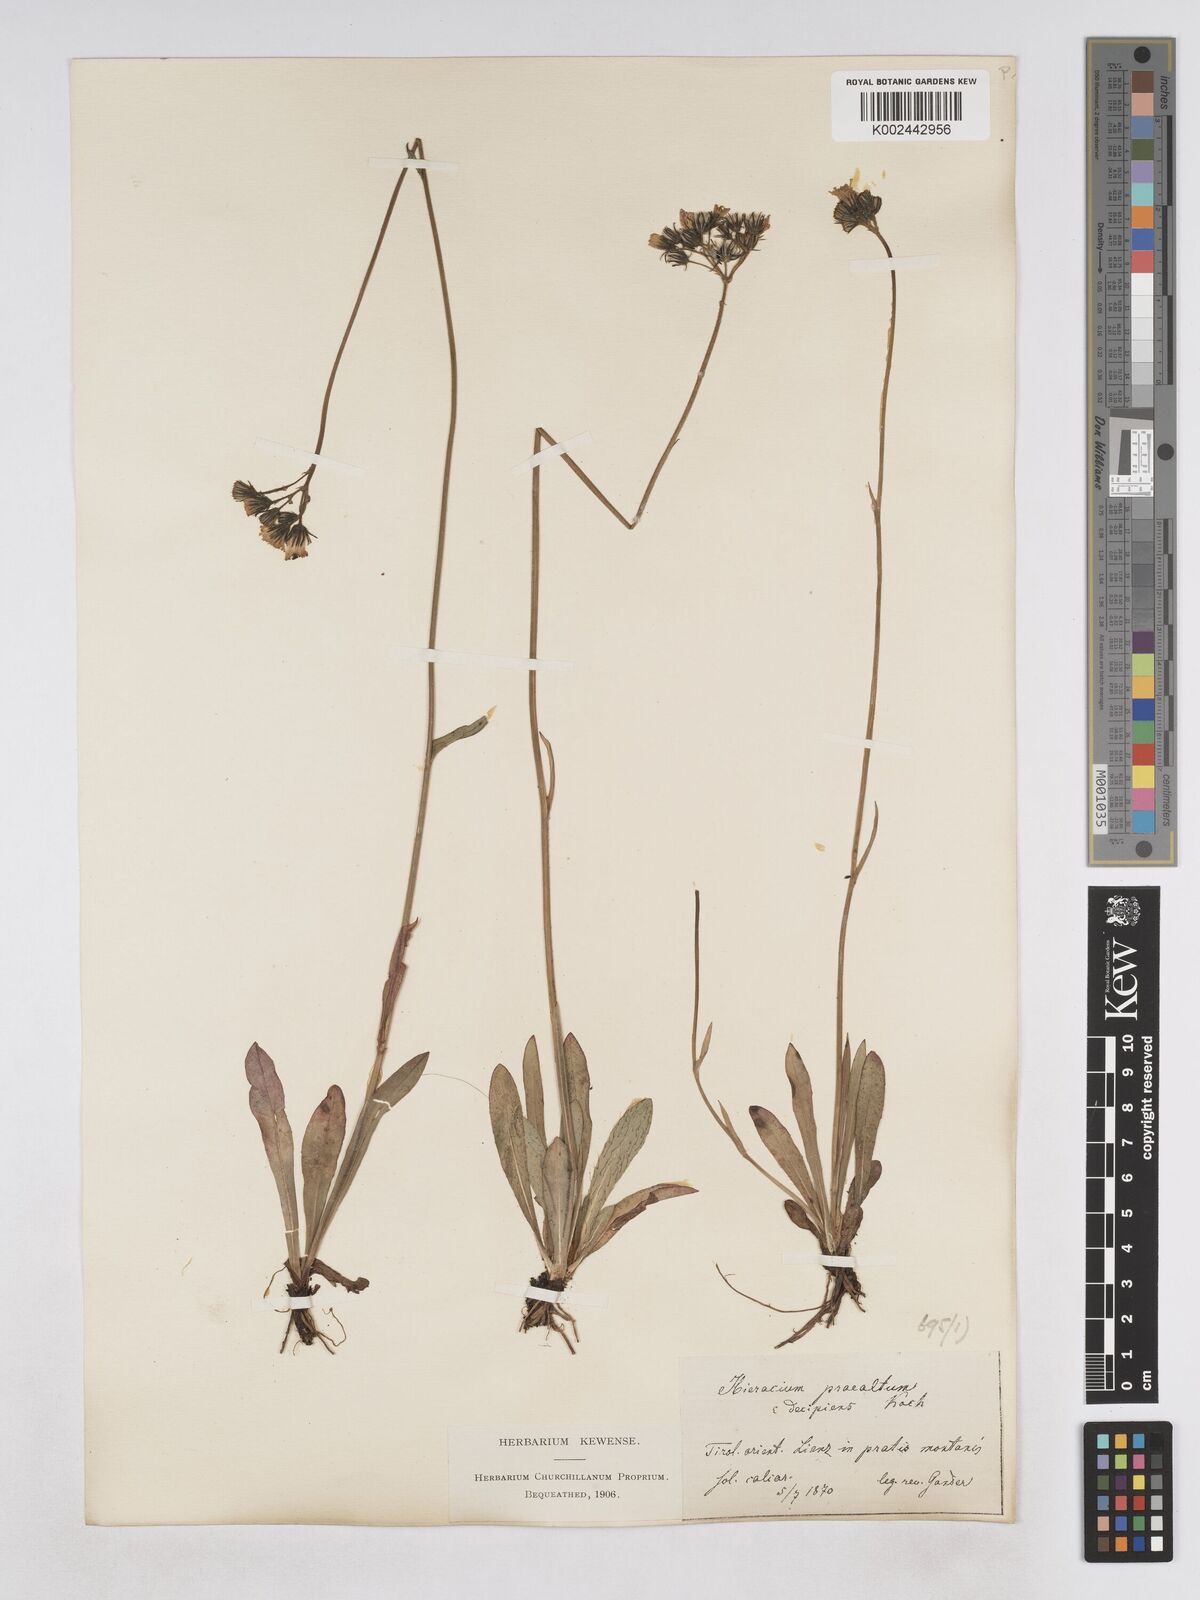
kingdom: Plantae
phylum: Tracheophyta
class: Magnoliopsida
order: Asterales
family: Asteraceae
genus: Pilosella
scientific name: Pilosella piloselloides
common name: Glaucous king-devil
